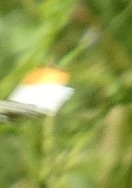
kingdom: Animalia
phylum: Arthropoda
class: Insecta
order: Lepidoptera
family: Pieridae
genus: Anthocharis
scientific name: Anthocharis cardamines
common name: Aurora
